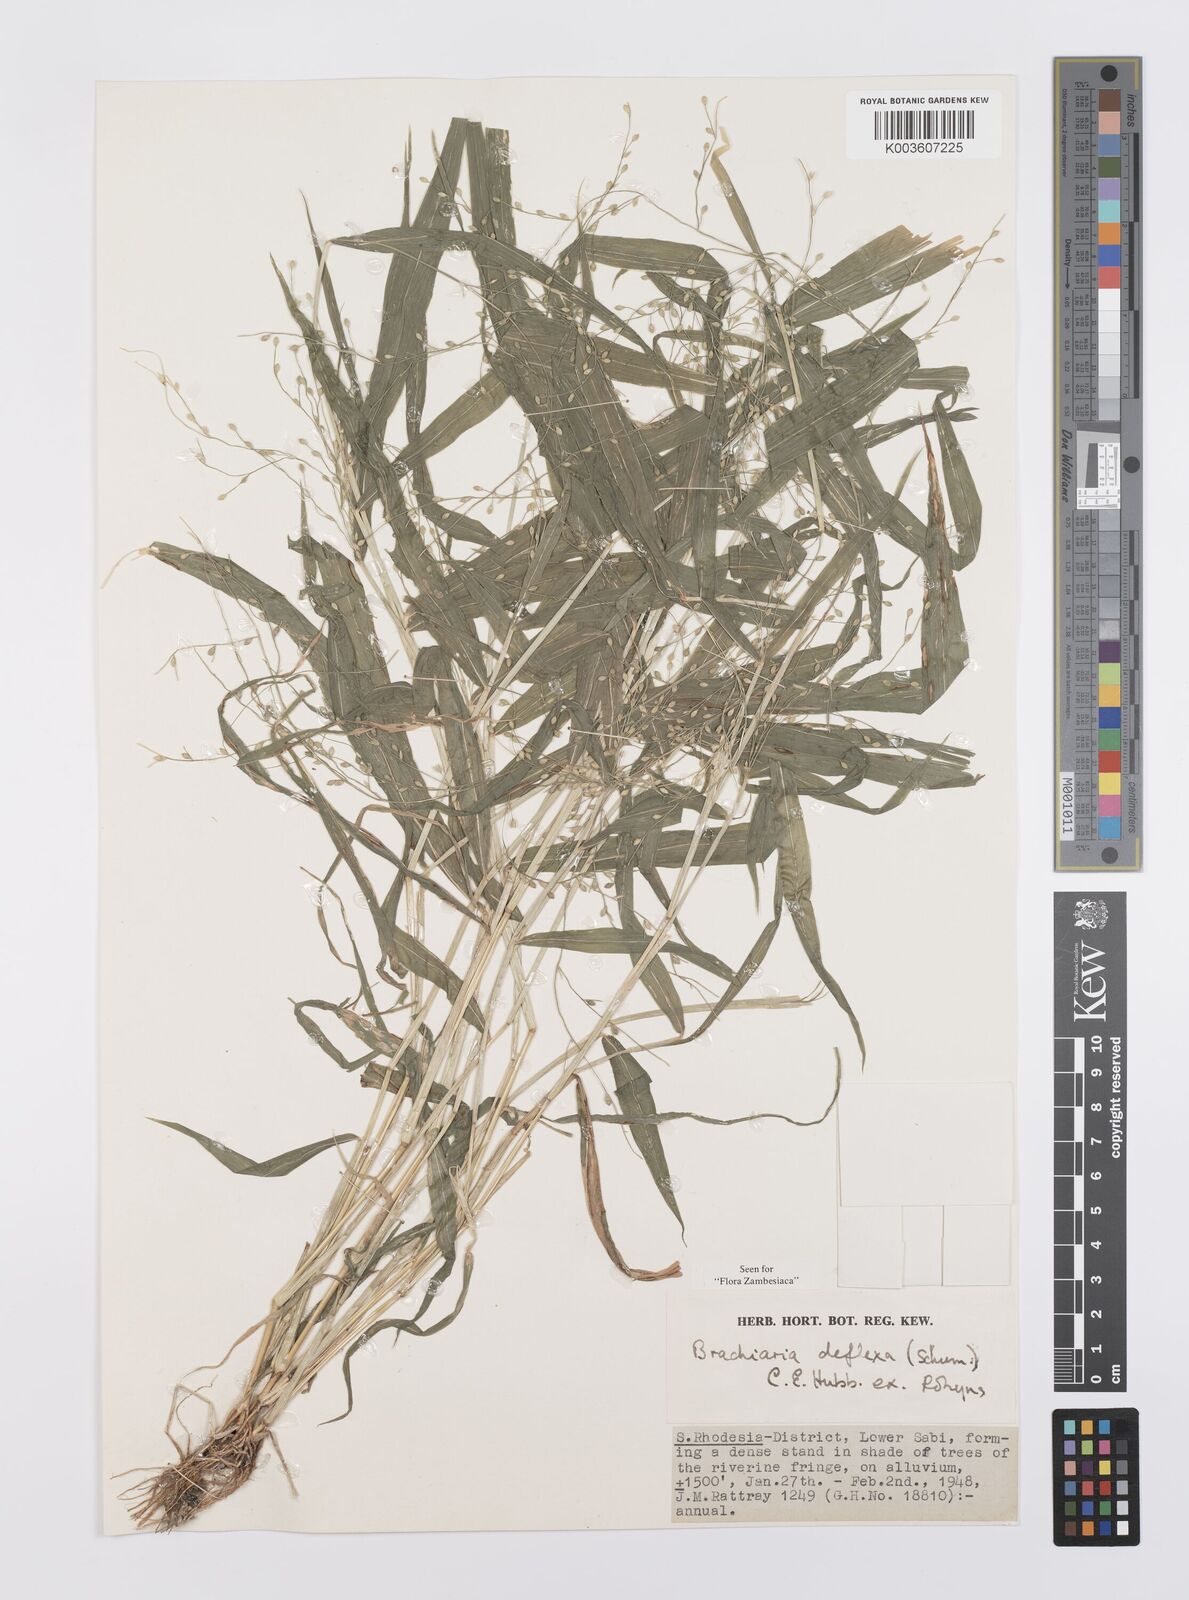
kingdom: Plantae
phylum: Tracheophyta
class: Liliopsida
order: Poales
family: Poaceae
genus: Urochloa
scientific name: Urochloa deflexa
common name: Guinea millet
